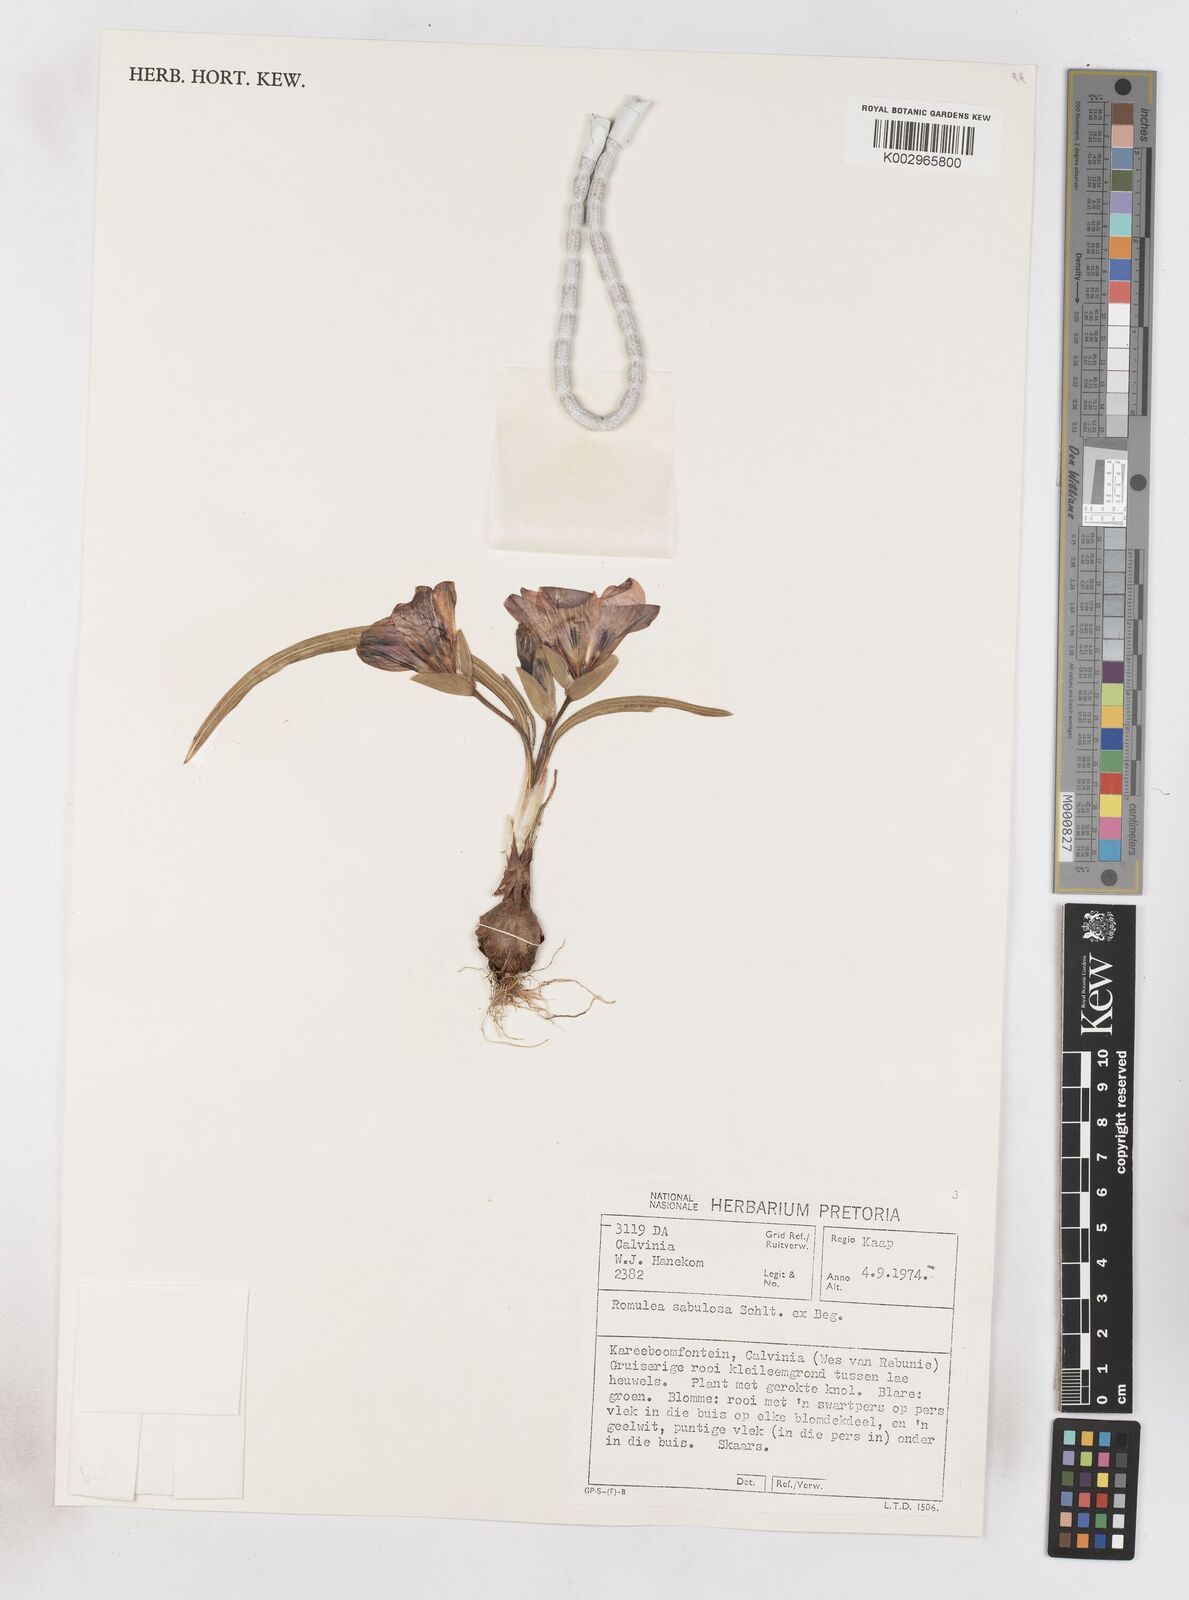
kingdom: Plantae
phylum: Tracheophyta
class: Liliopsida
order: Asparagales
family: Iridaceae
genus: Romulea
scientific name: Romulea sabulosa
